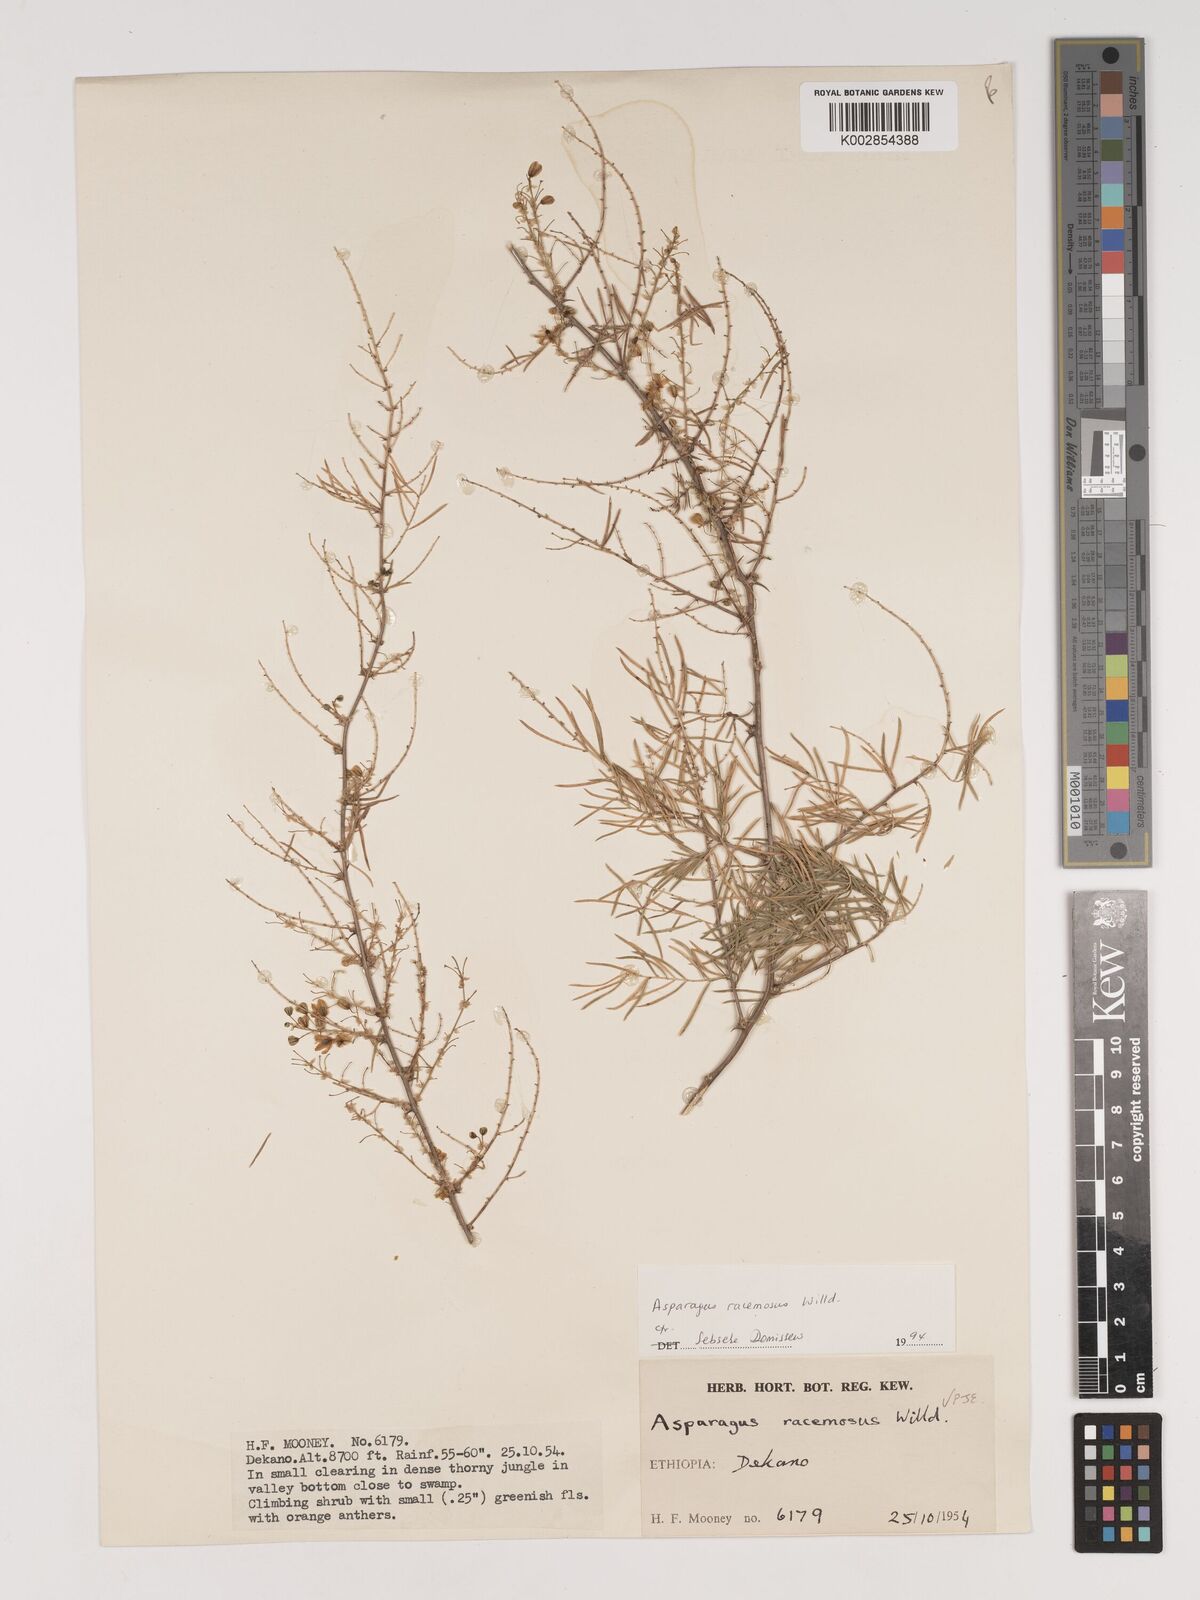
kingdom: Plantae
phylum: Tracheophyta
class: Liliopsida
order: Asparagales
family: Asparagaceae
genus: Asparagus
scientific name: Asparagus racemosus
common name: Asparagus-fern
